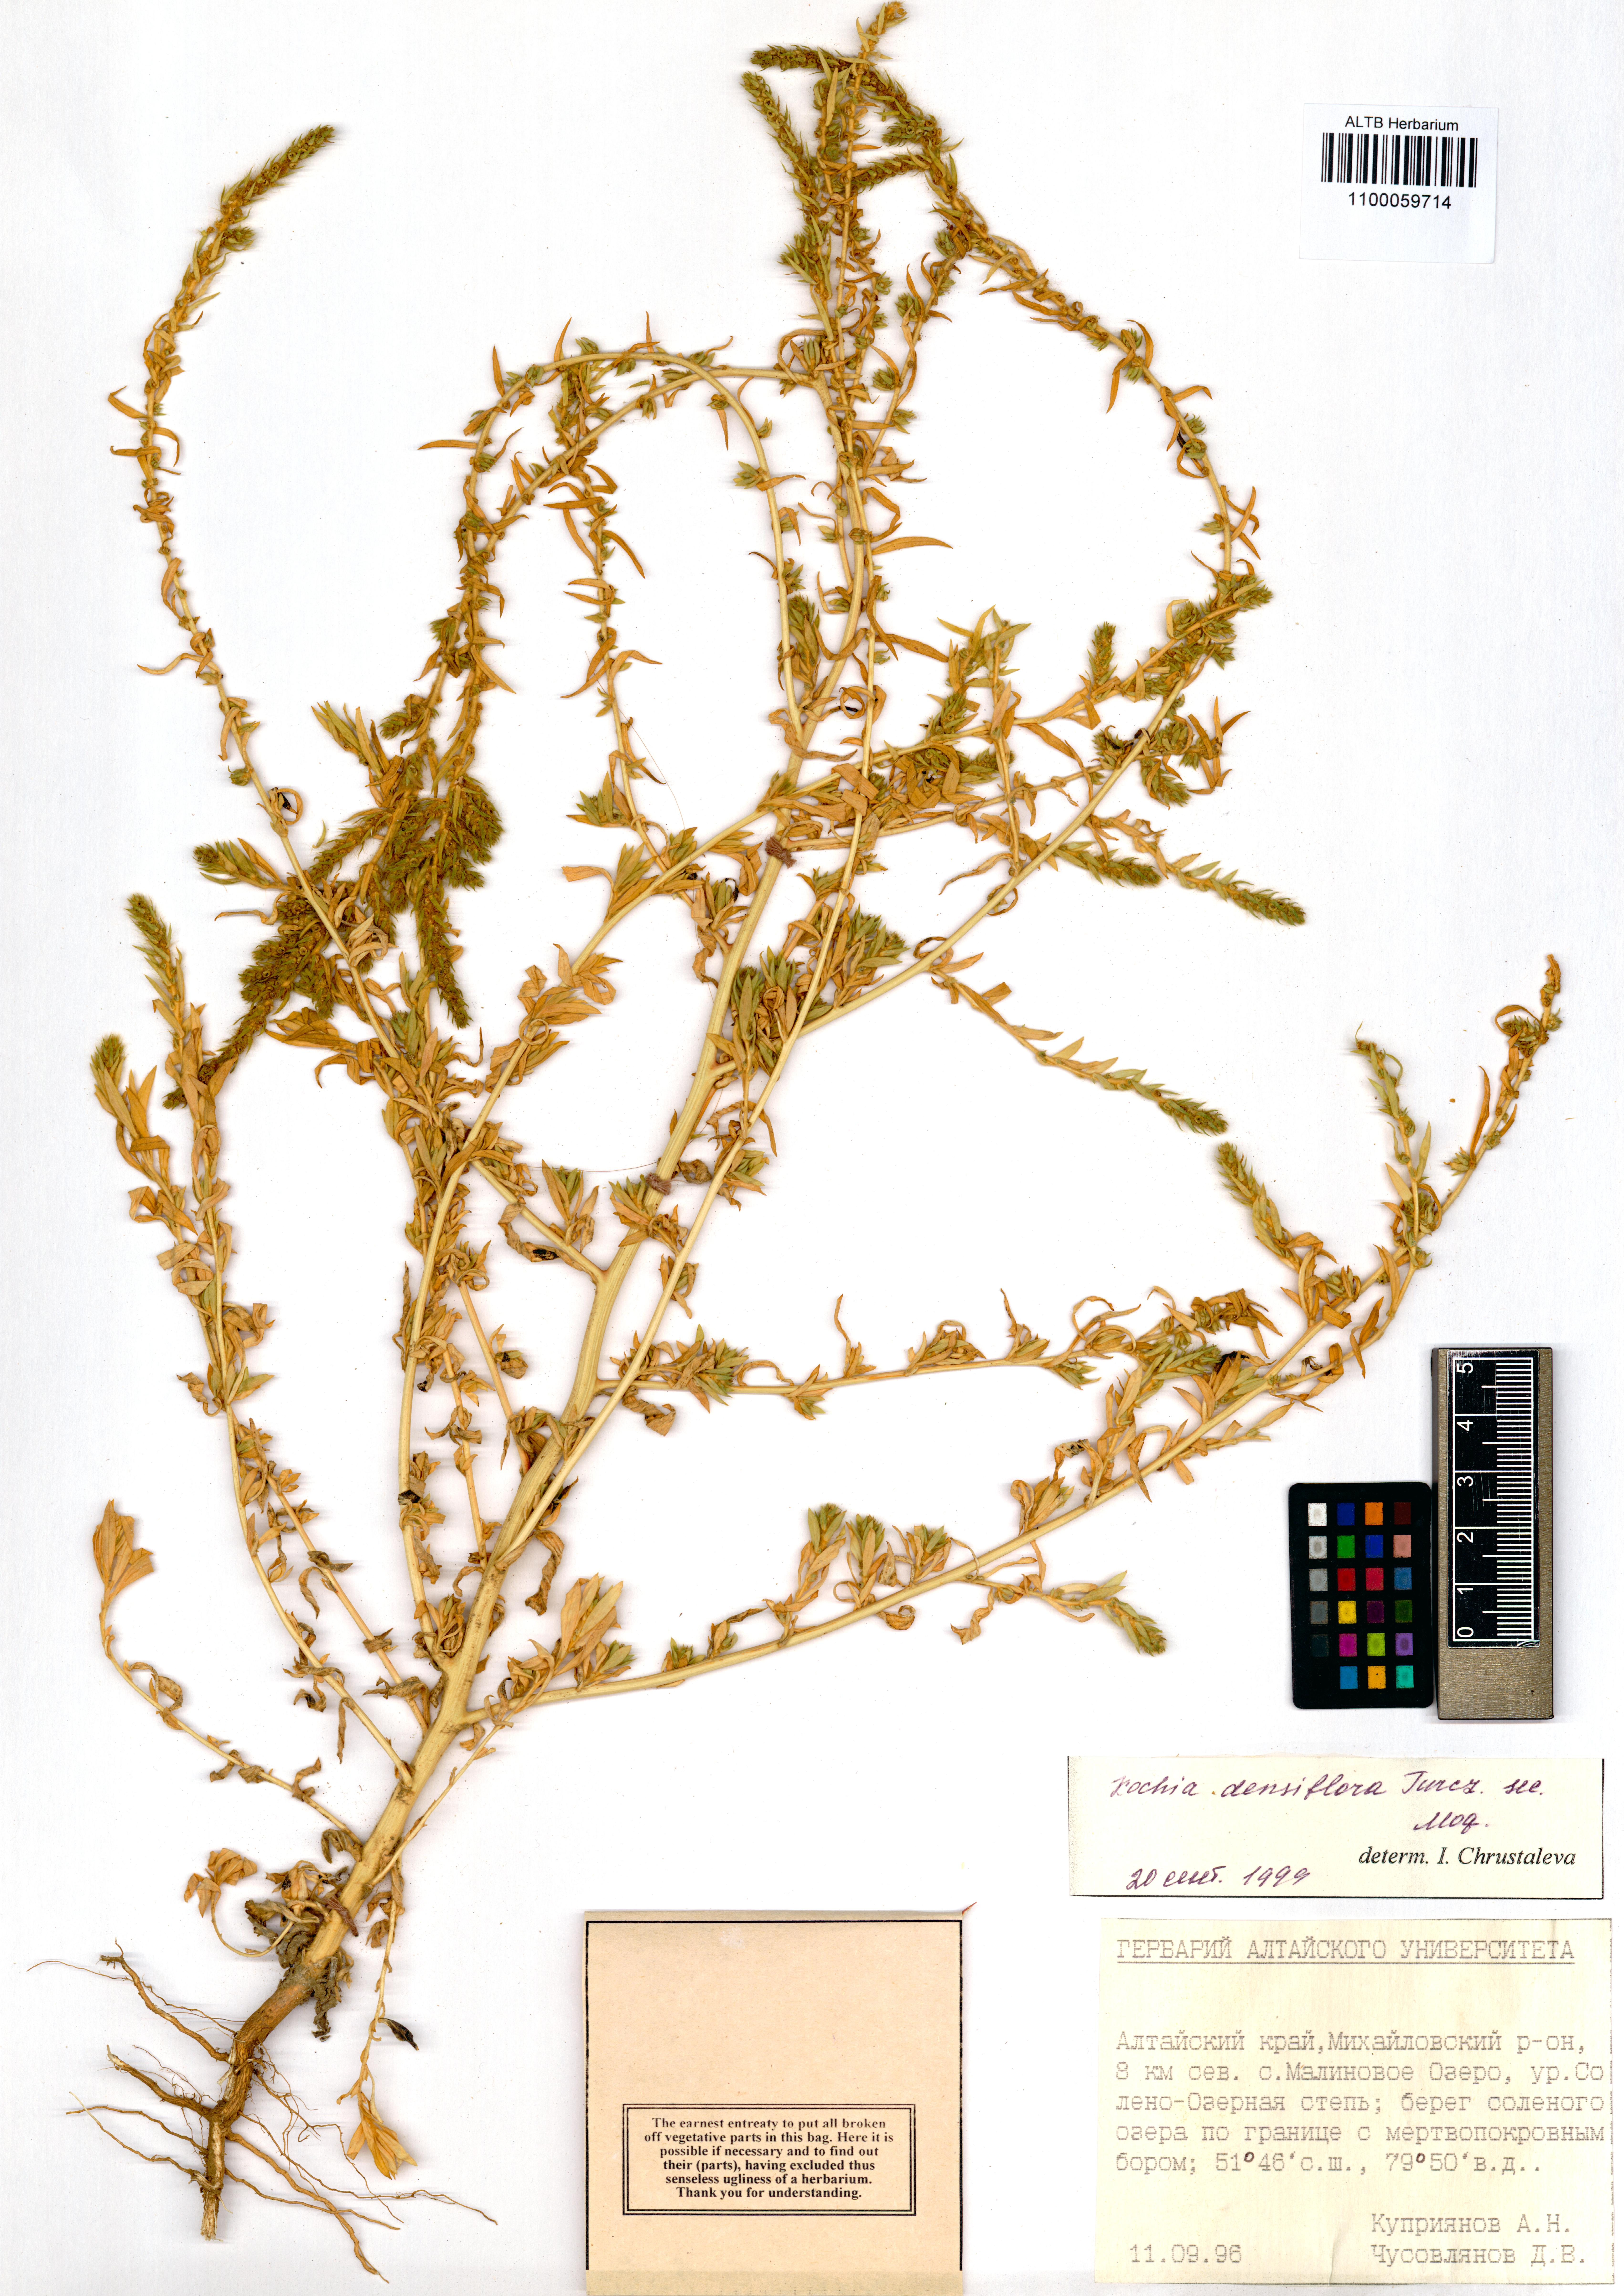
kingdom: Plantae
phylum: Tracheophyta
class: Magnoliopsida
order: Caryophyllales
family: Amaranthaceae
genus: Bassia
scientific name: Bassia scoparia
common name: Belvedere
